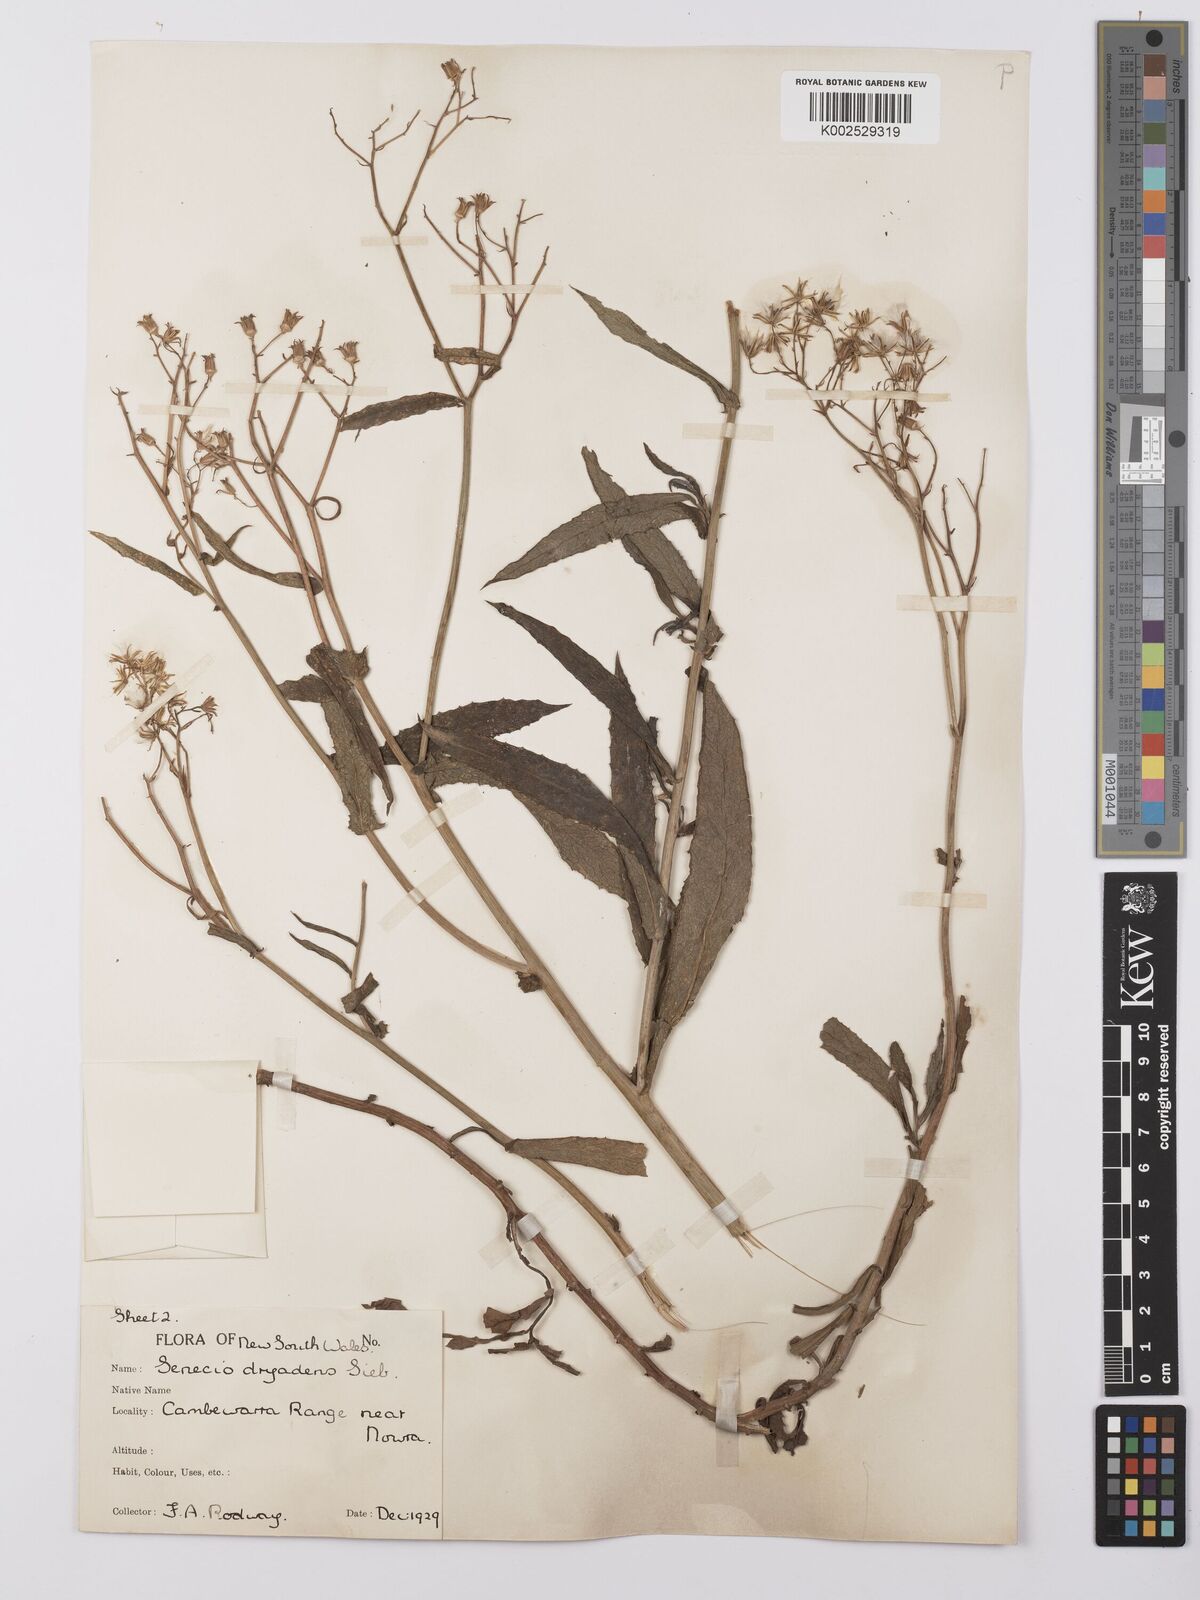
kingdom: Plantae
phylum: Tracheophyta
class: Magnoliopsida
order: Asterales
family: Asteraceae
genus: Senecio
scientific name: Senecio linearifolius
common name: Fireweed groundsel
